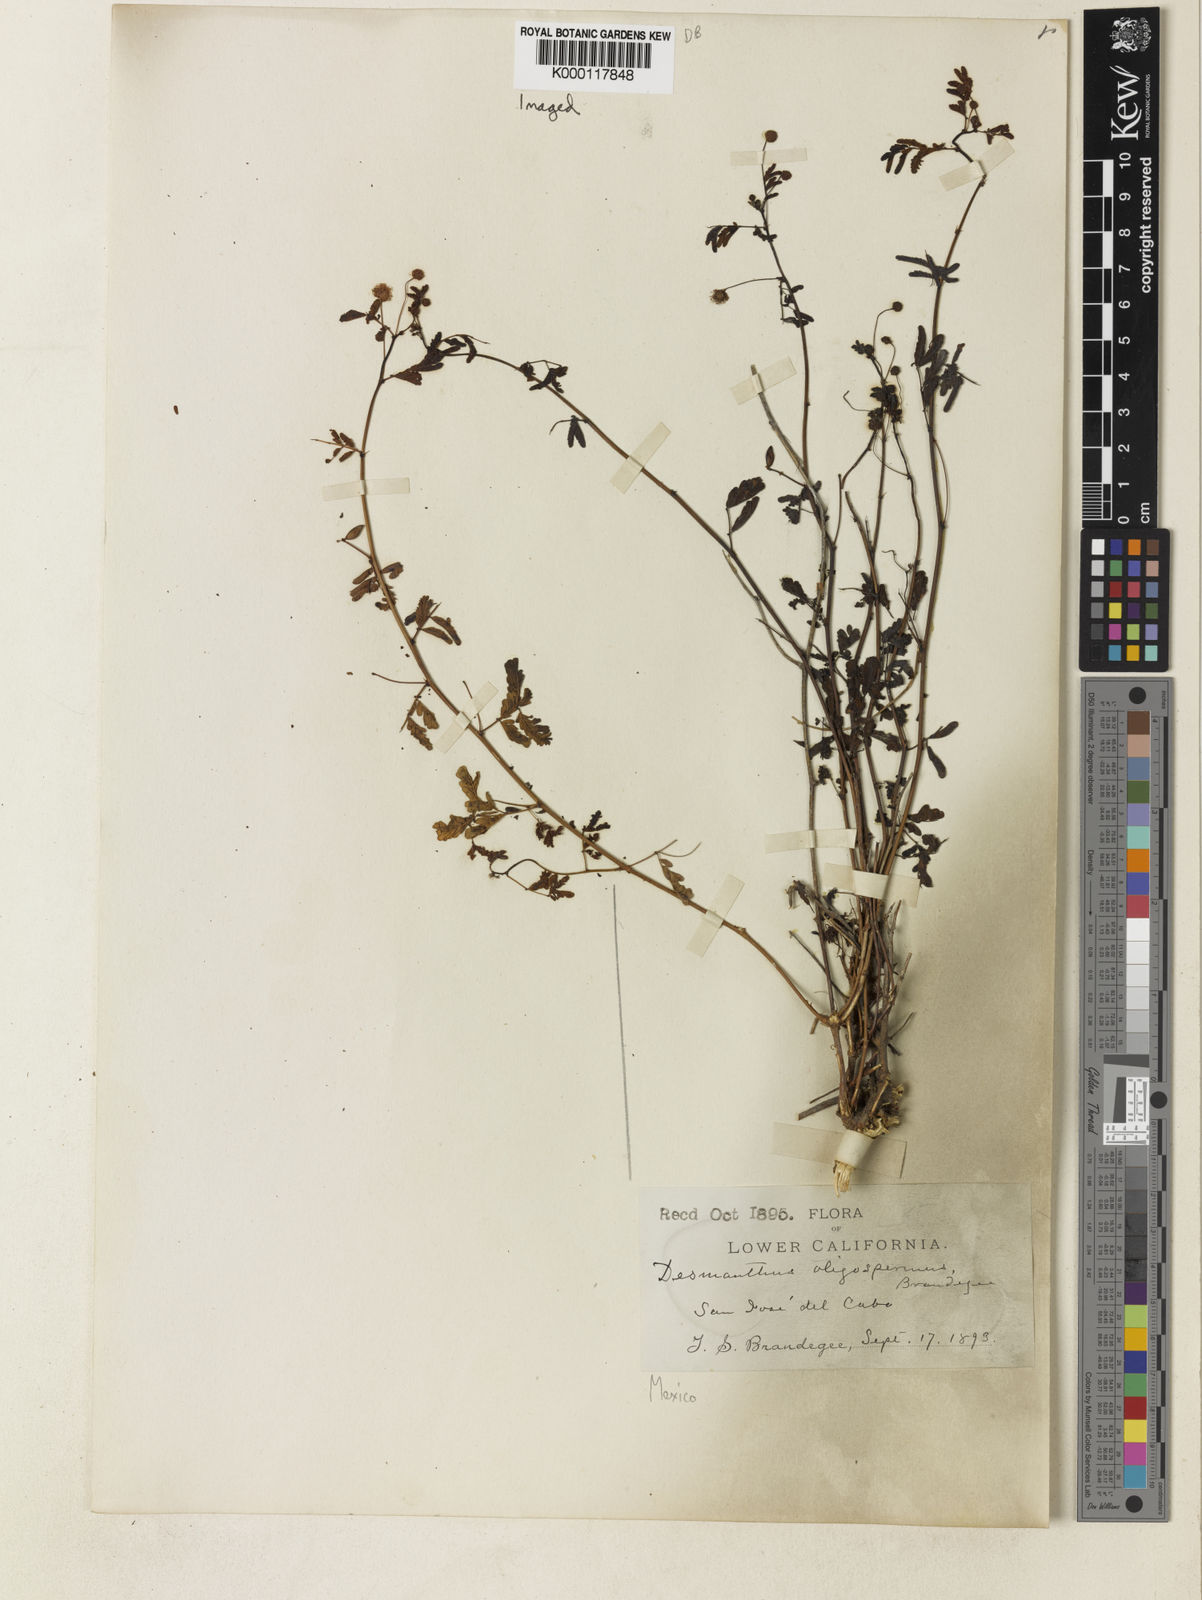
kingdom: Plantae
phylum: Tracheophyta
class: Magnoliopsida
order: Fabales
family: Fabaceae
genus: Desmanthus
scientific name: Desmanthus
